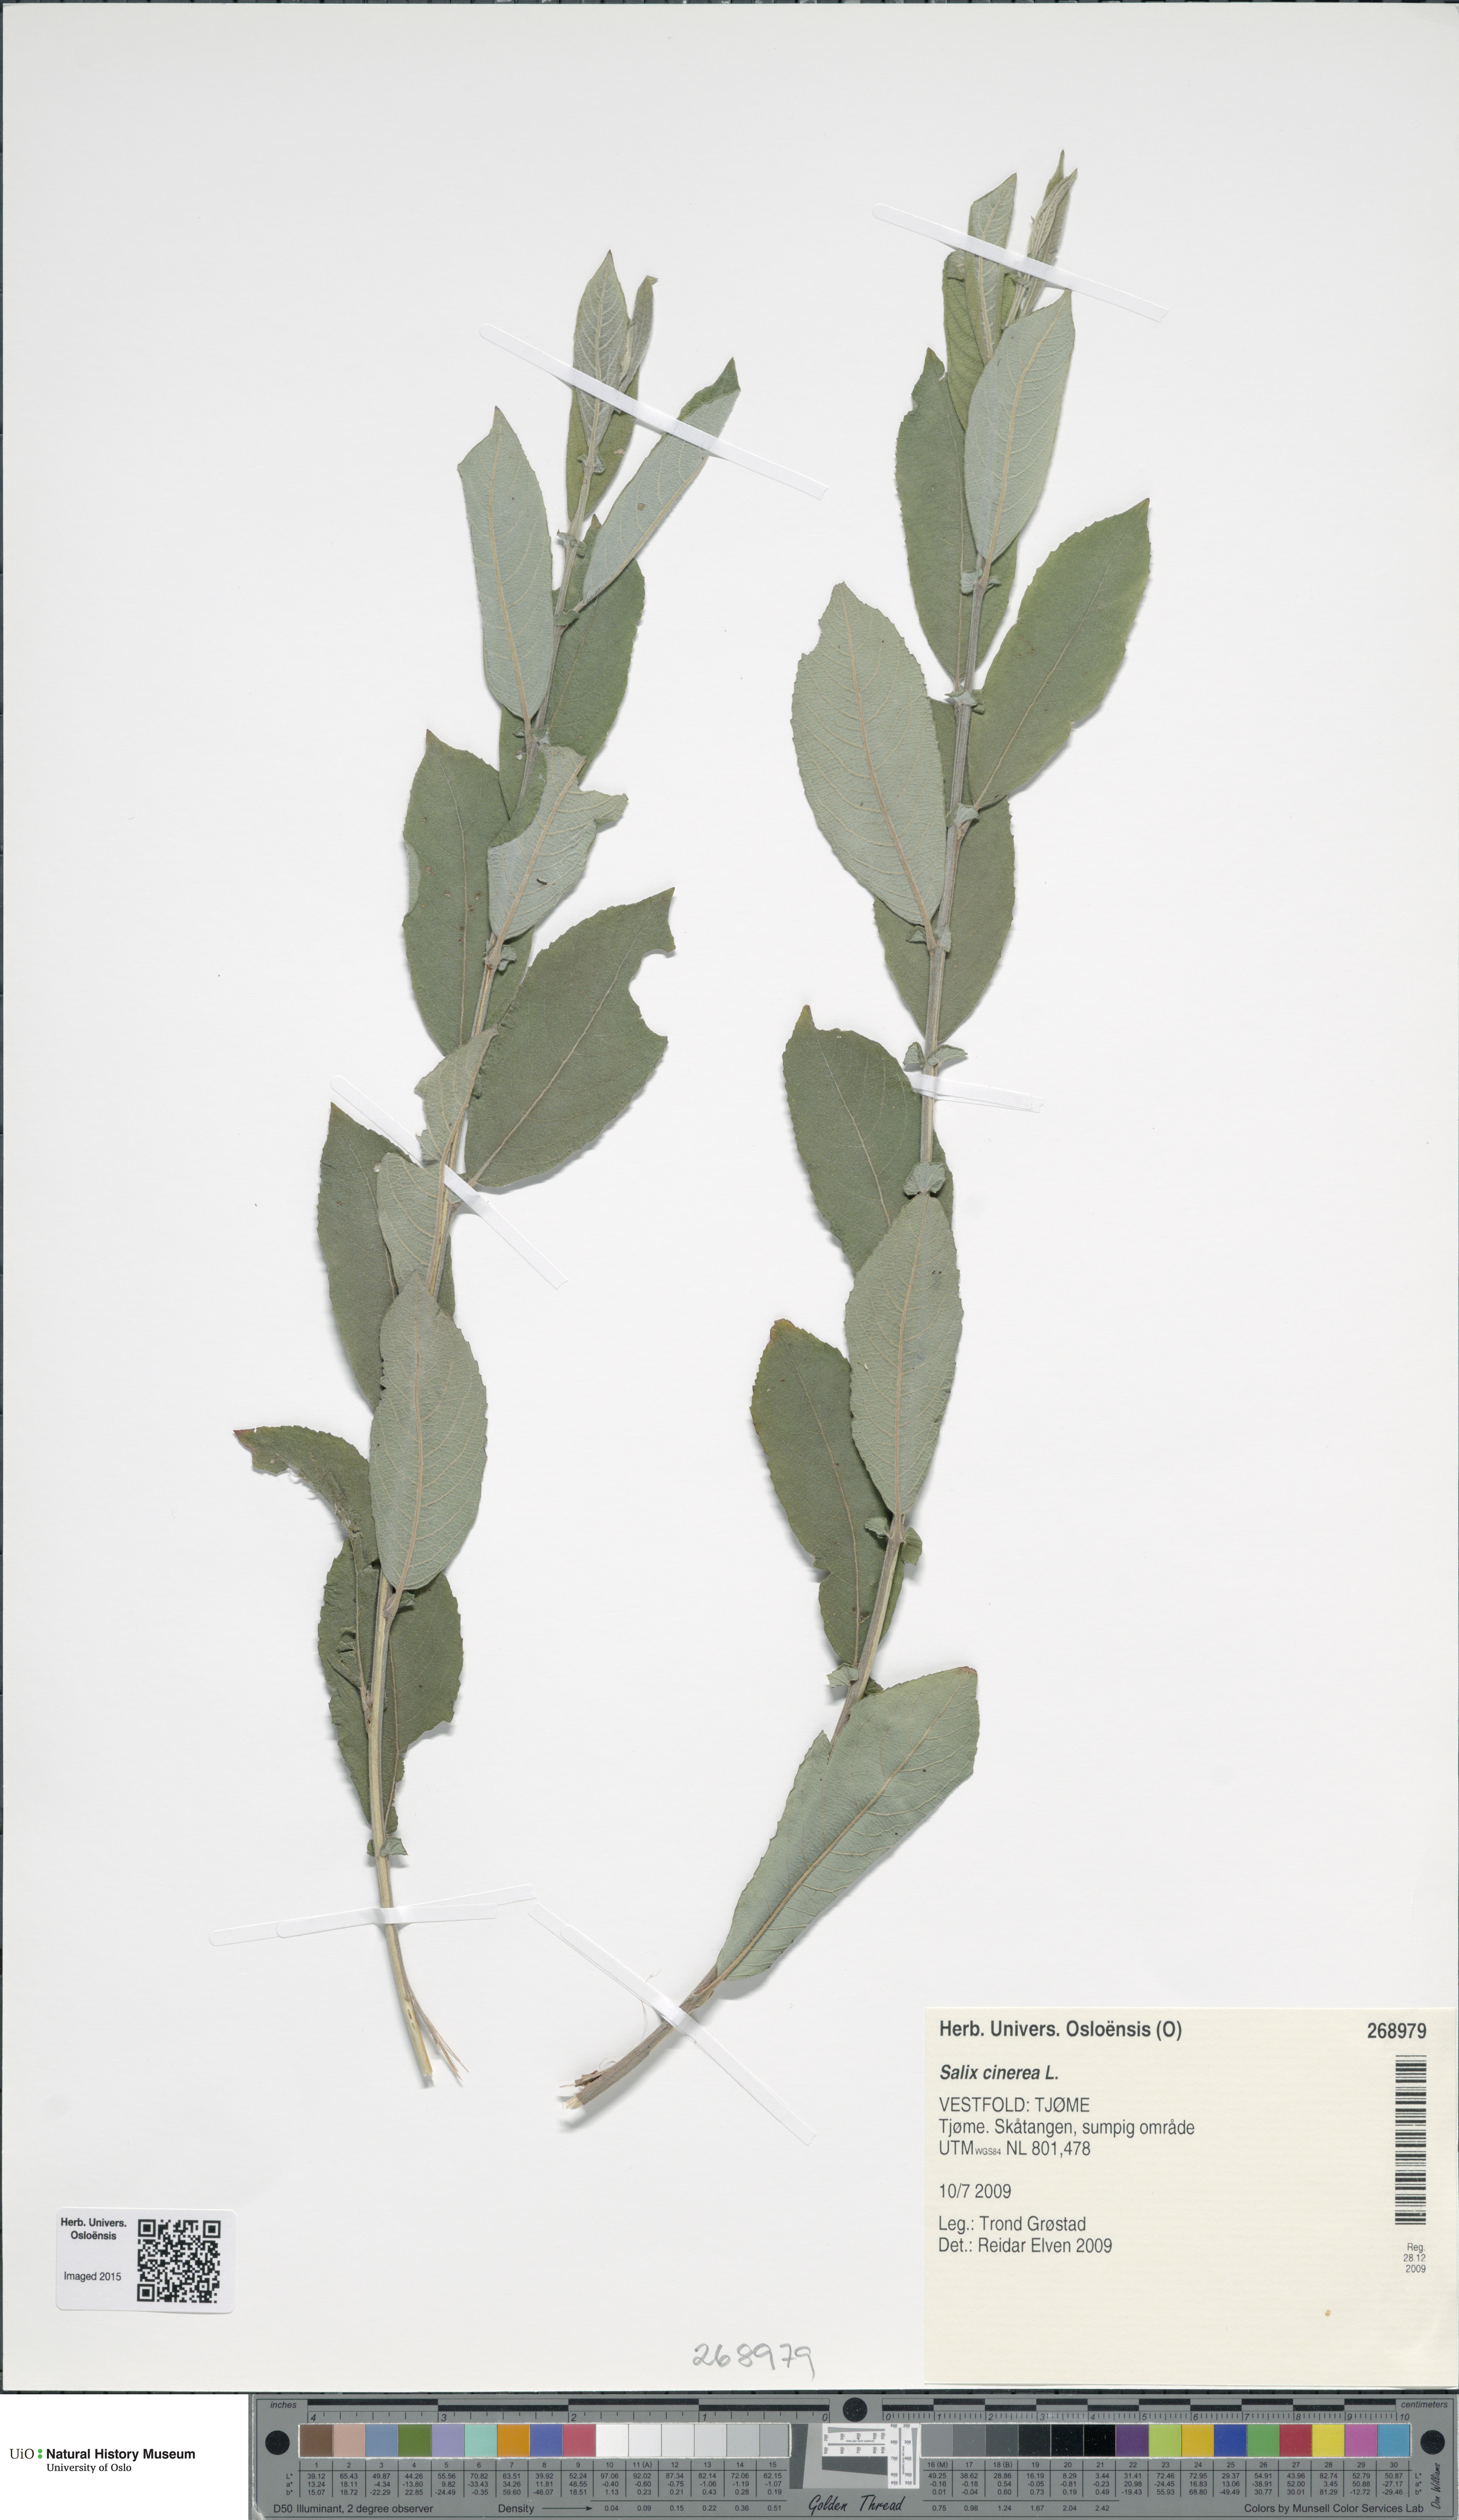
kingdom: Plantae
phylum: Tracheophyta
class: Magnoliopsida
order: Malpighiales
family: Salicaceae
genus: Salix
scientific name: Salix cinerea
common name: Common sallow
